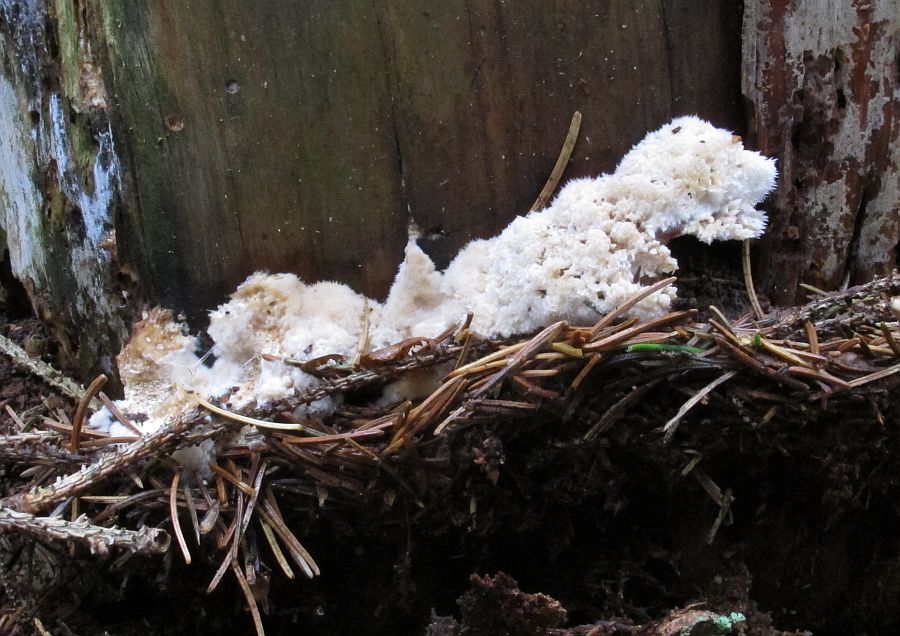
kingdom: Fungi
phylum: Basidiomycota
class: Agaricomycetes
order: Polyporales
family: Dacryobolaceae
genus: Postia
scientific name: Postia ptychogaster
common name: støvende kødporesvamp
